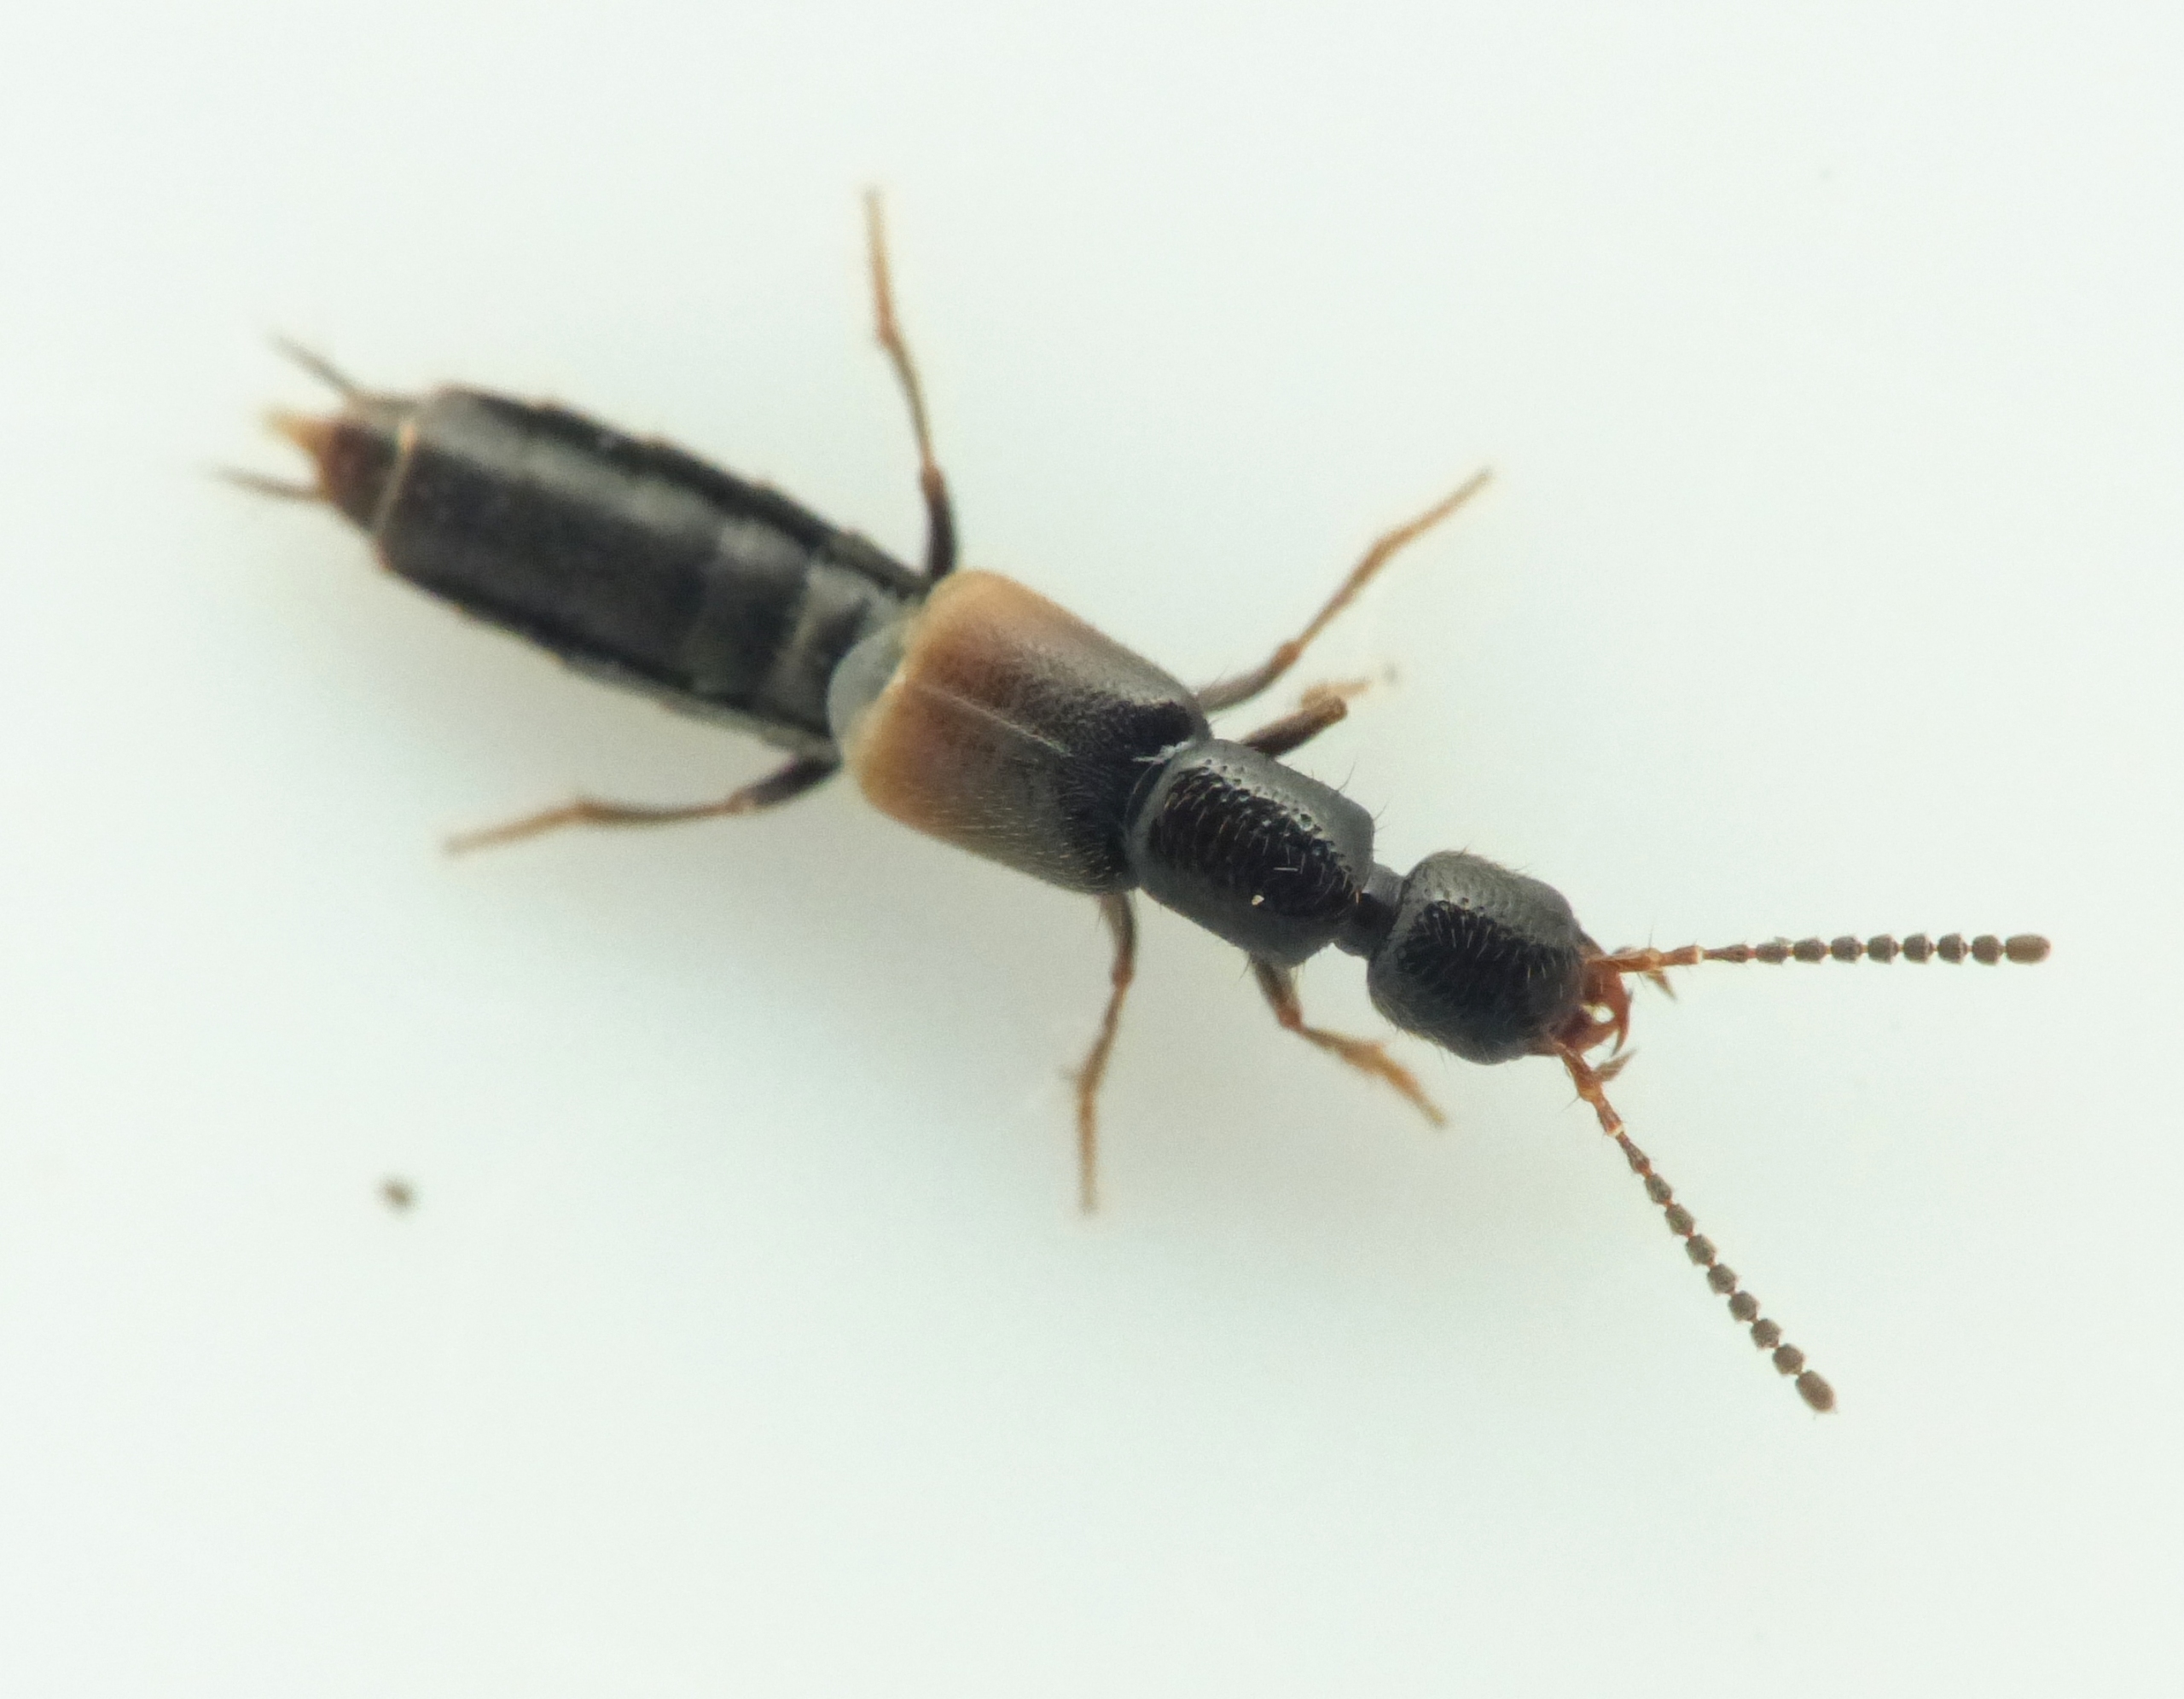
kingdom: Animalia
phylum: Arthropoda
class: Insecta
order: Coleoptera
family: Staphylinidae
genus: Neobisnius
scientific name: Neobisnius procerulus
